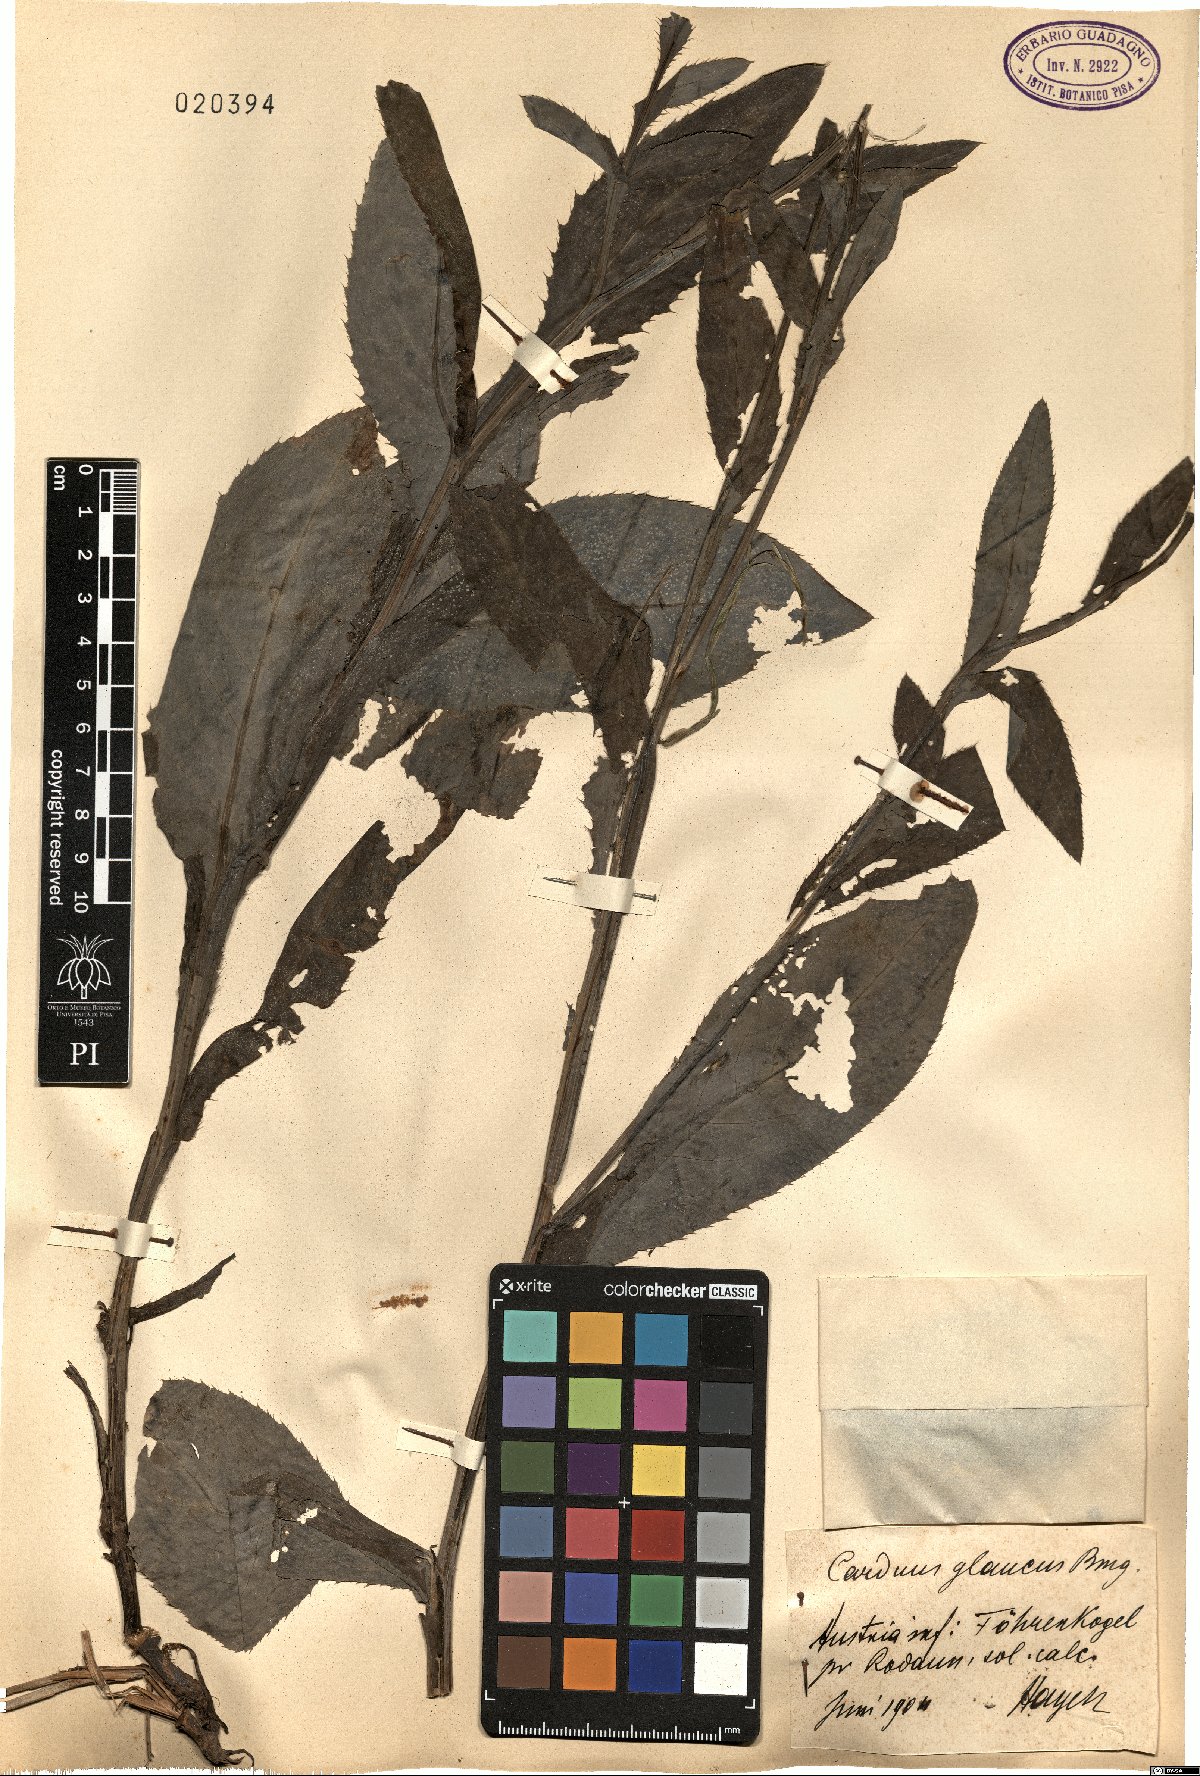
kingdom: Plantae
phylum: Tracheophyta
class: Magnoliopsida
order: Asterales
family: Asteraceae
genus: Carduus
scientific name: Carduus defloratus
